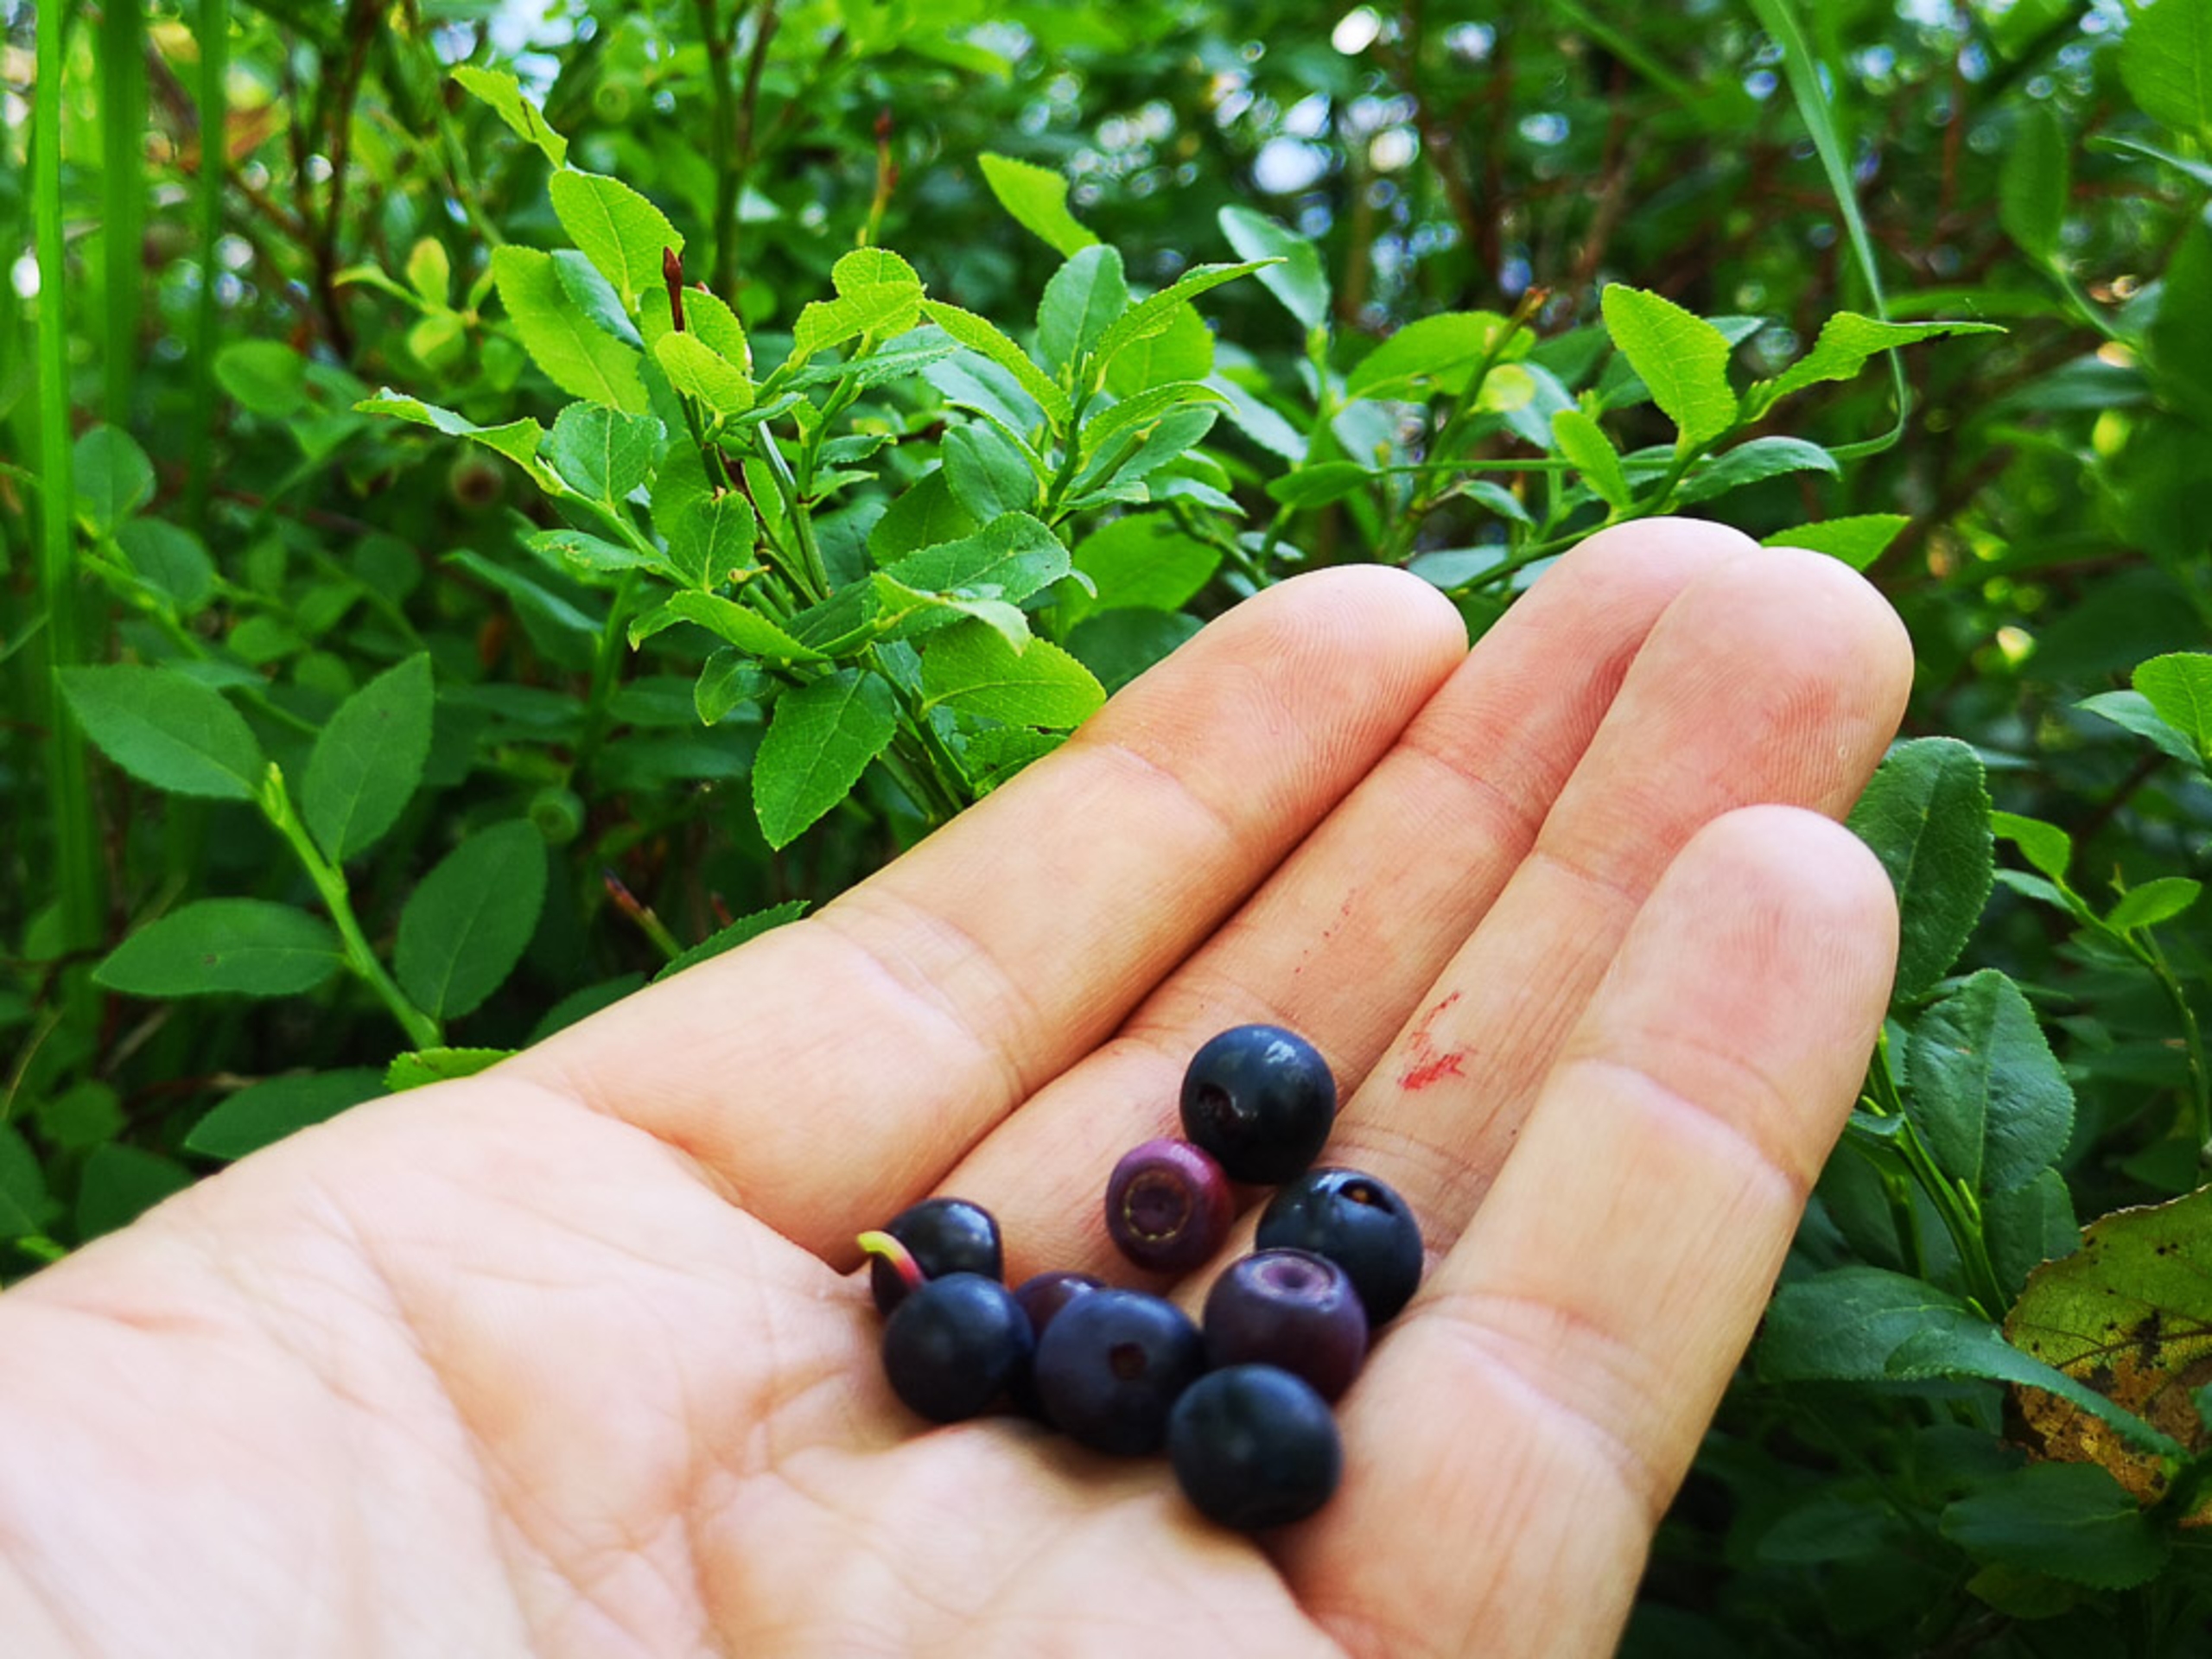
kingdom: Plantae
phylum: Tracheophyta
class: Magnoliopsida
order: Ericales
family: Ericaceae
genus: Vaccinium
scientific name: Vaccinium myrtillus
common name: Blåbær
